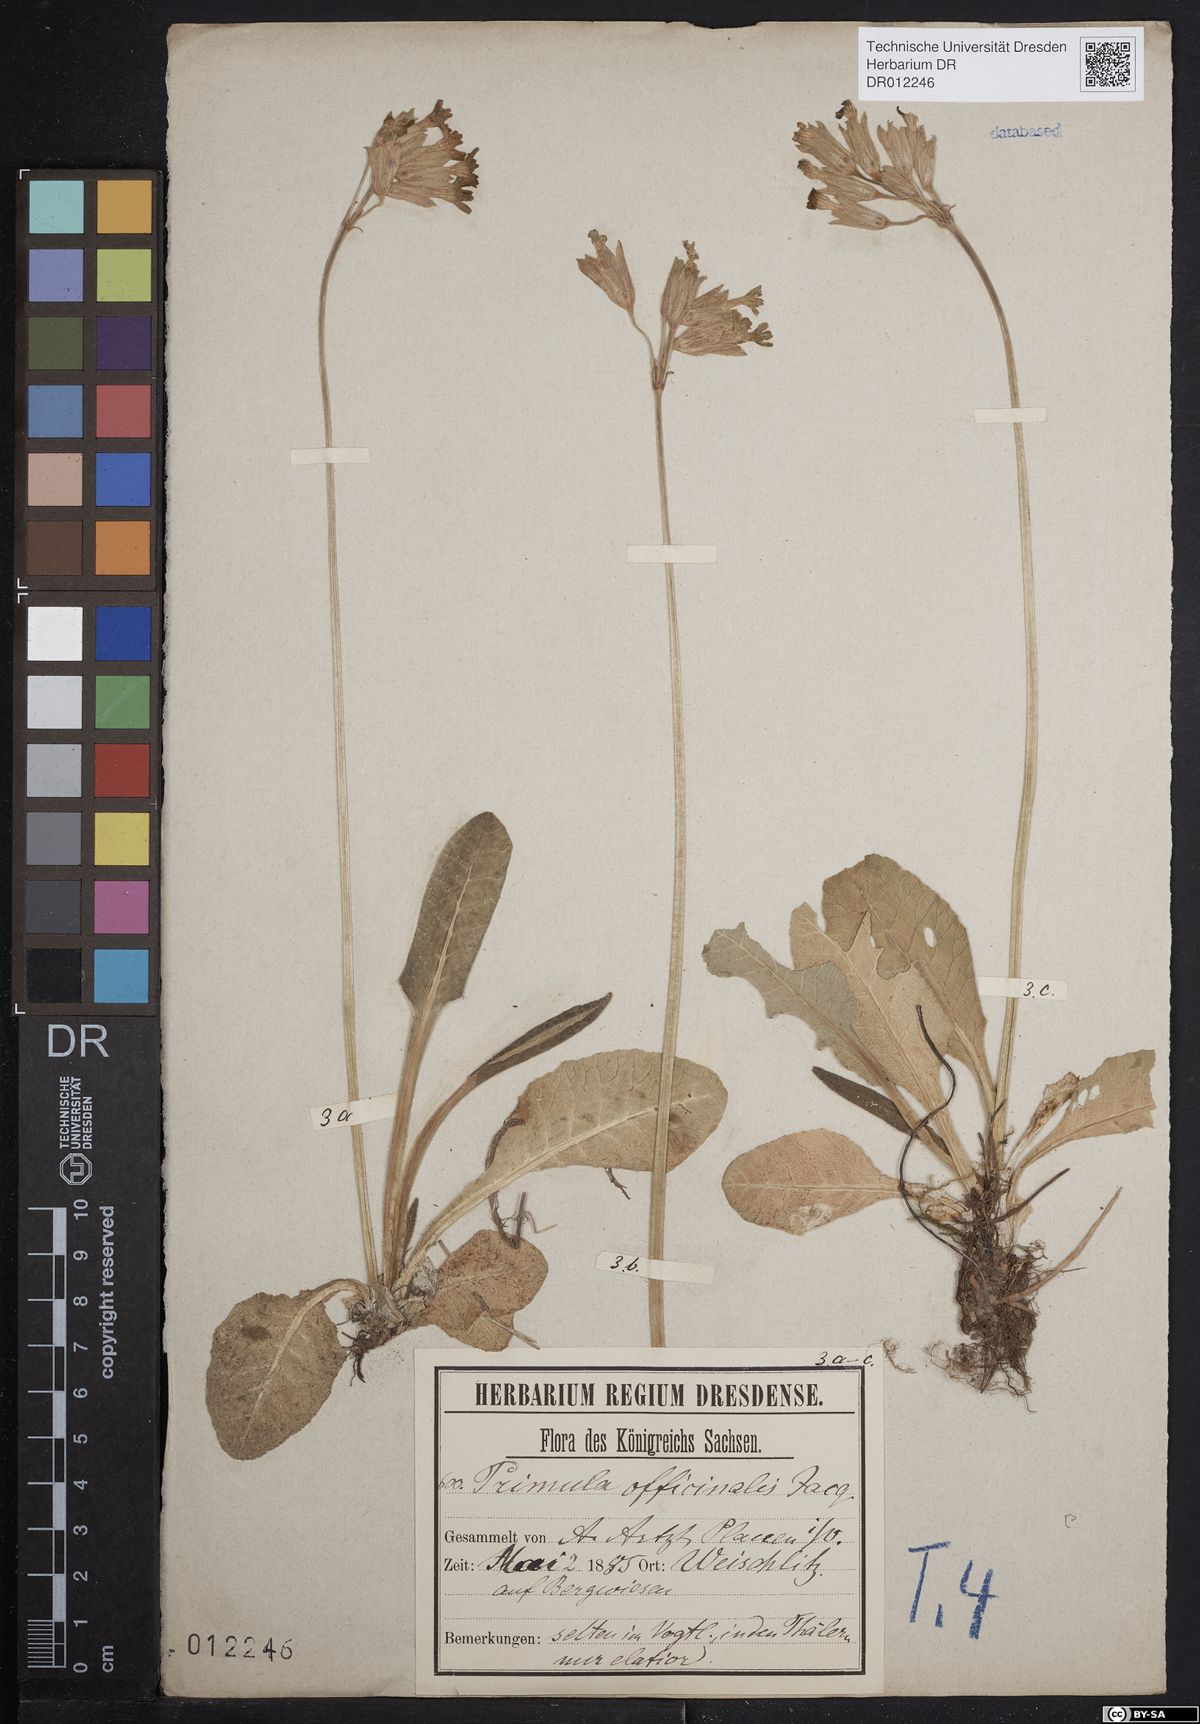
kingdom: Plantae
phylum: Tracheophyta
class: Magnoliopsida
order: Ericales
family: Primulaceae
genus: Primula
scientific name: Primula veris
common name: Cowslip
